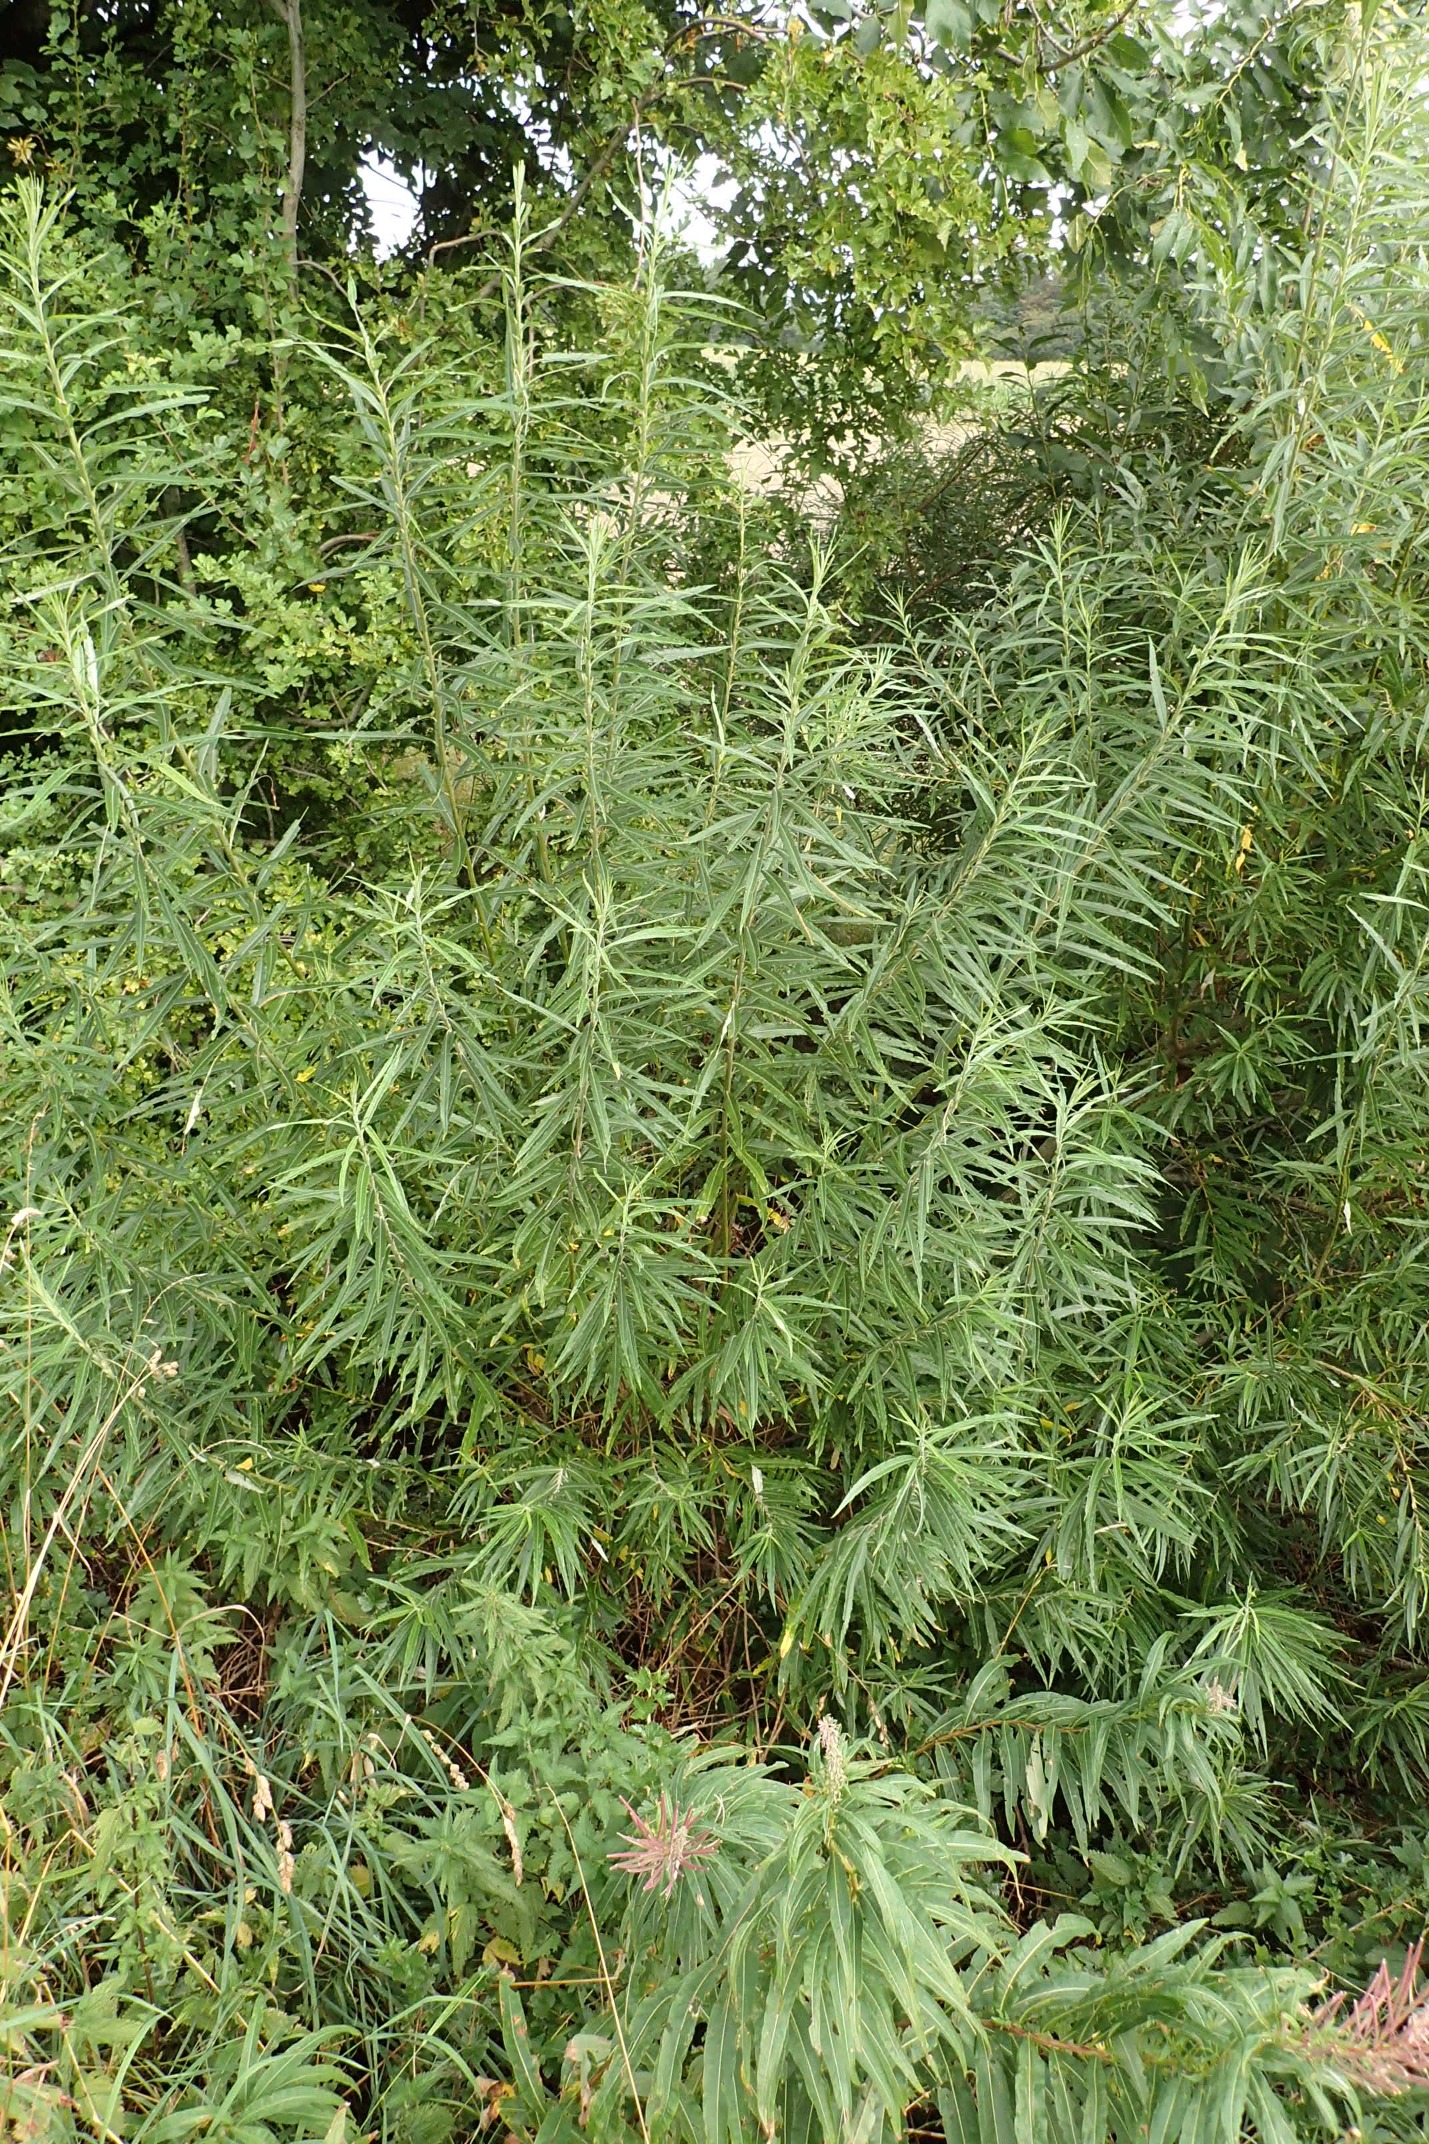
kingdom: Plantae
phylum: Tracheophyta
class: Magnoliopsida
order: Malpighiales
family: Salicaceae
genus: Salix
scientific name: Salix viminalis
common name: Bånd-pil
